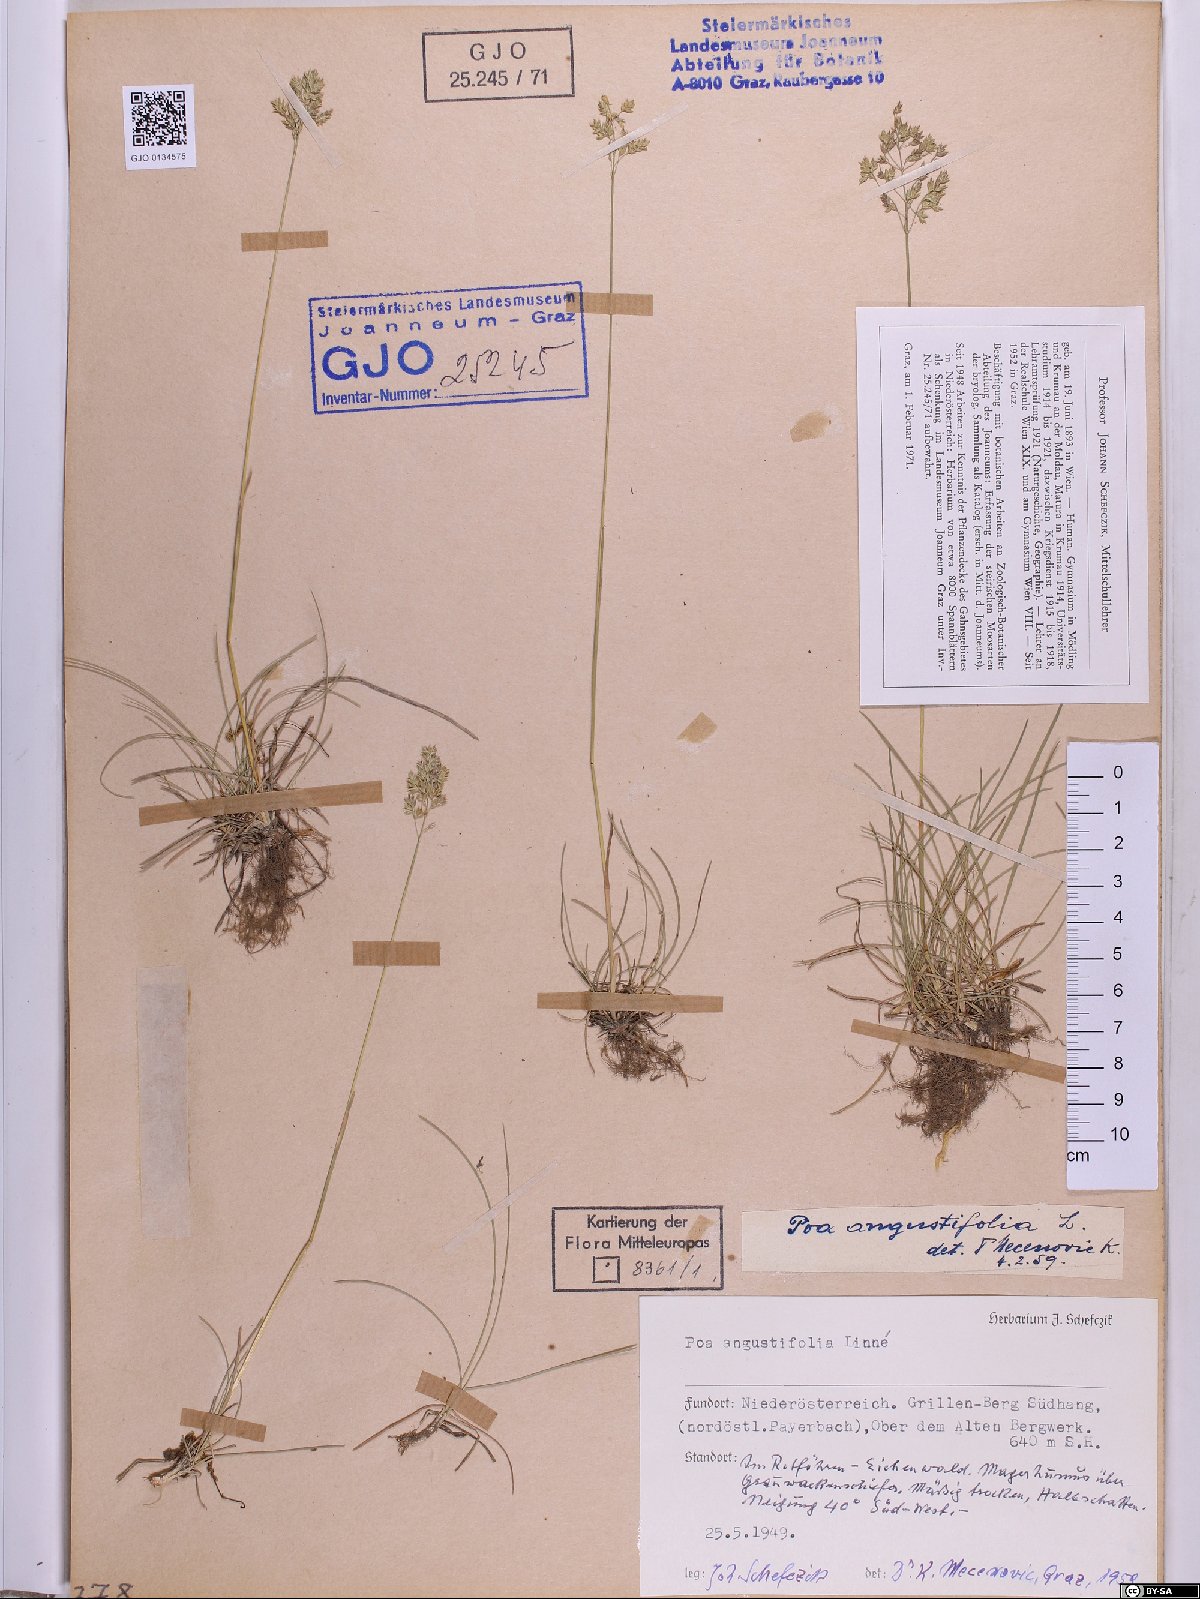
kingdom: Plantae
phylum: Tracheophyta
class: Liliopsida
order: Poales
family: Poaceae
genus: Poa
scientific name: Poa angustifolia
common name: Narrow-leaved meadow-grass
